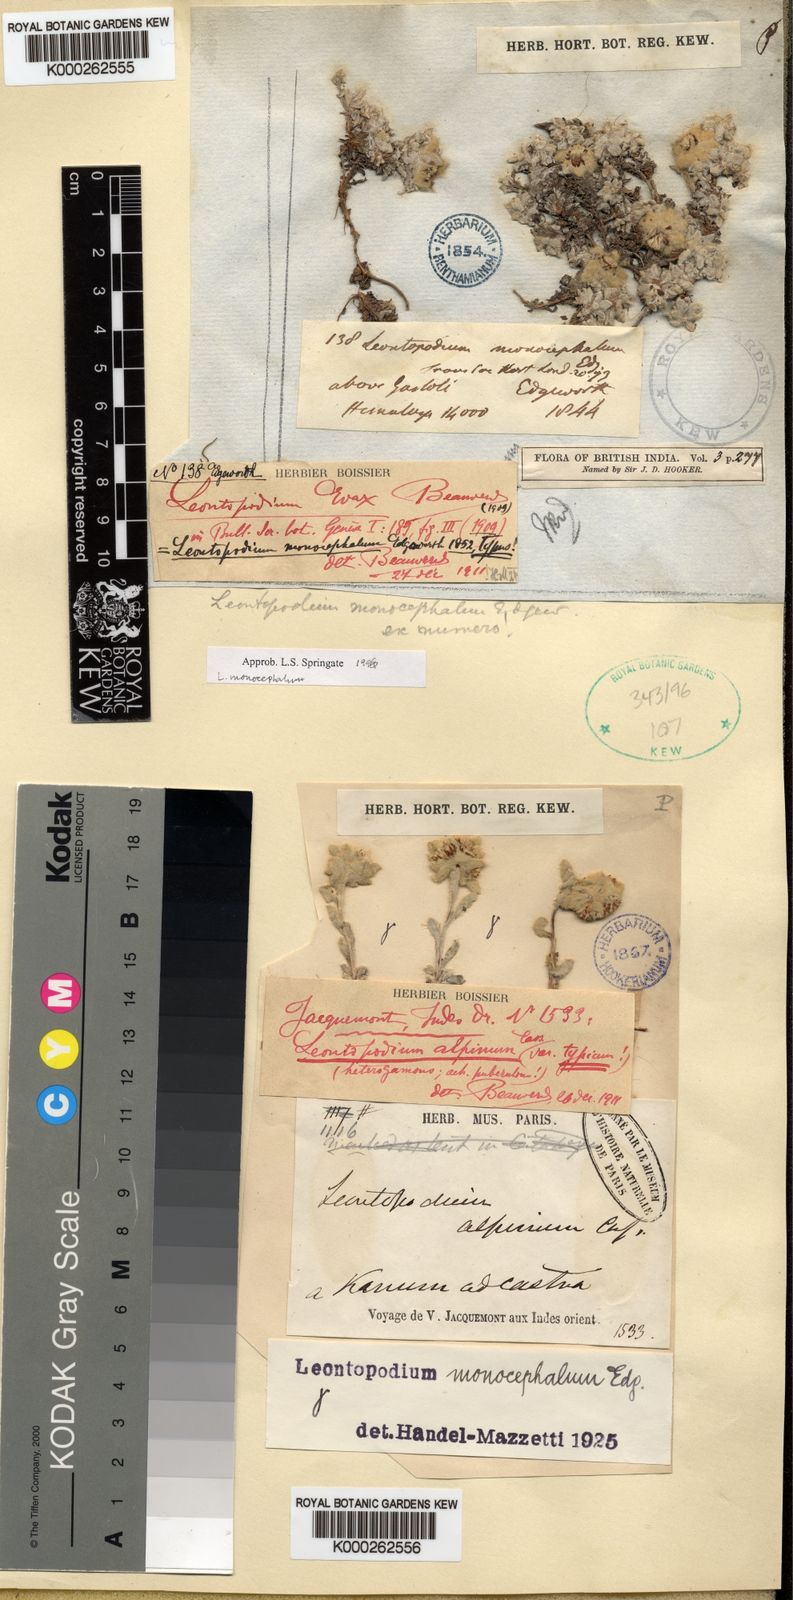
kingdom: Plantae
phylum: Tracheophyta
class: Magnoliopsida
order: Asterales
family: Asteraceae
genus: Leontopodium
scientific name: Leontopodium monocephalum
